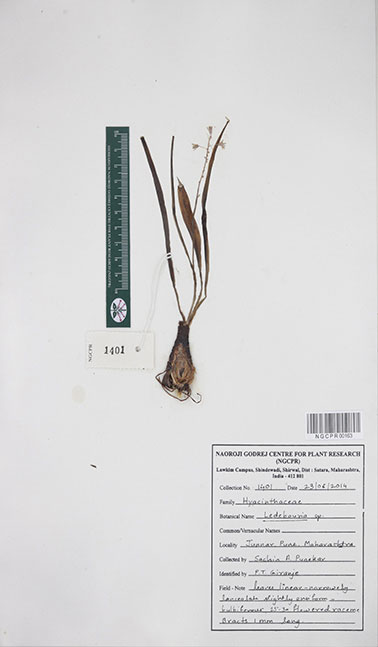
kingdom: Plantae
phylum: Tracheophyta
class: Liliopsida
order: Asparagales
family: Asparagaceae
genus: Ledebouria
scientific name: Ledebouria
